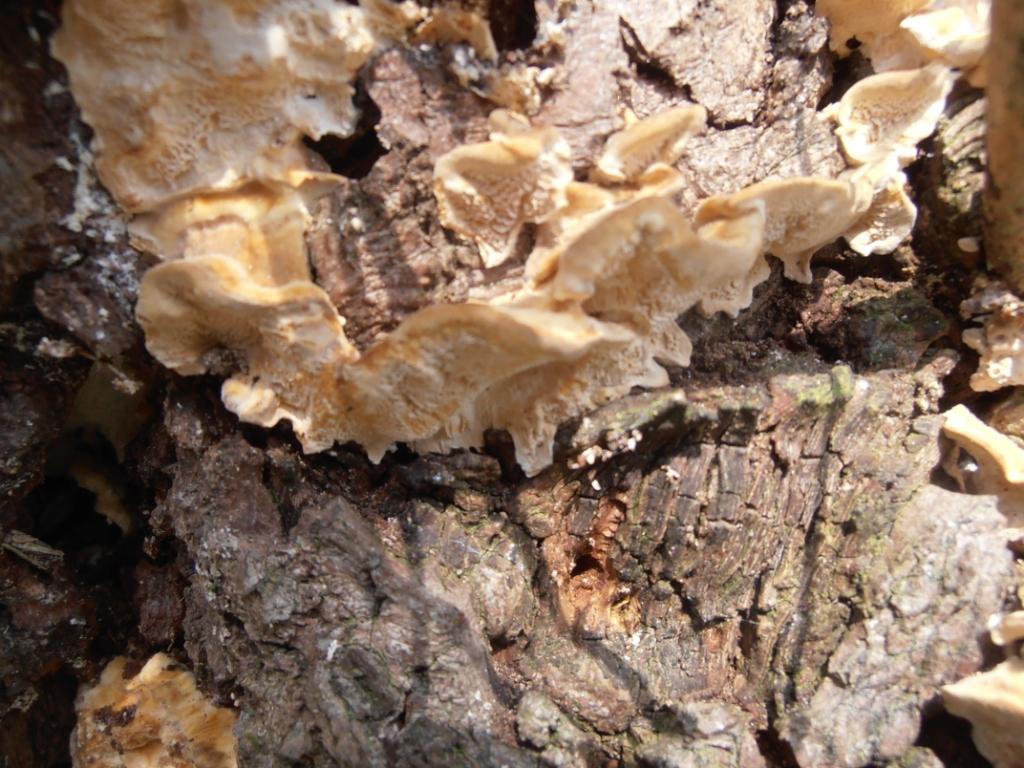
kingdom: Fungi
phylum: Basidiomycota
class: Agaricomycetes
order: Polyporales
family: Polyporaceae
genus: Trametes
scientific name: Trametes versicolor
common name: broget læderporesvamp
